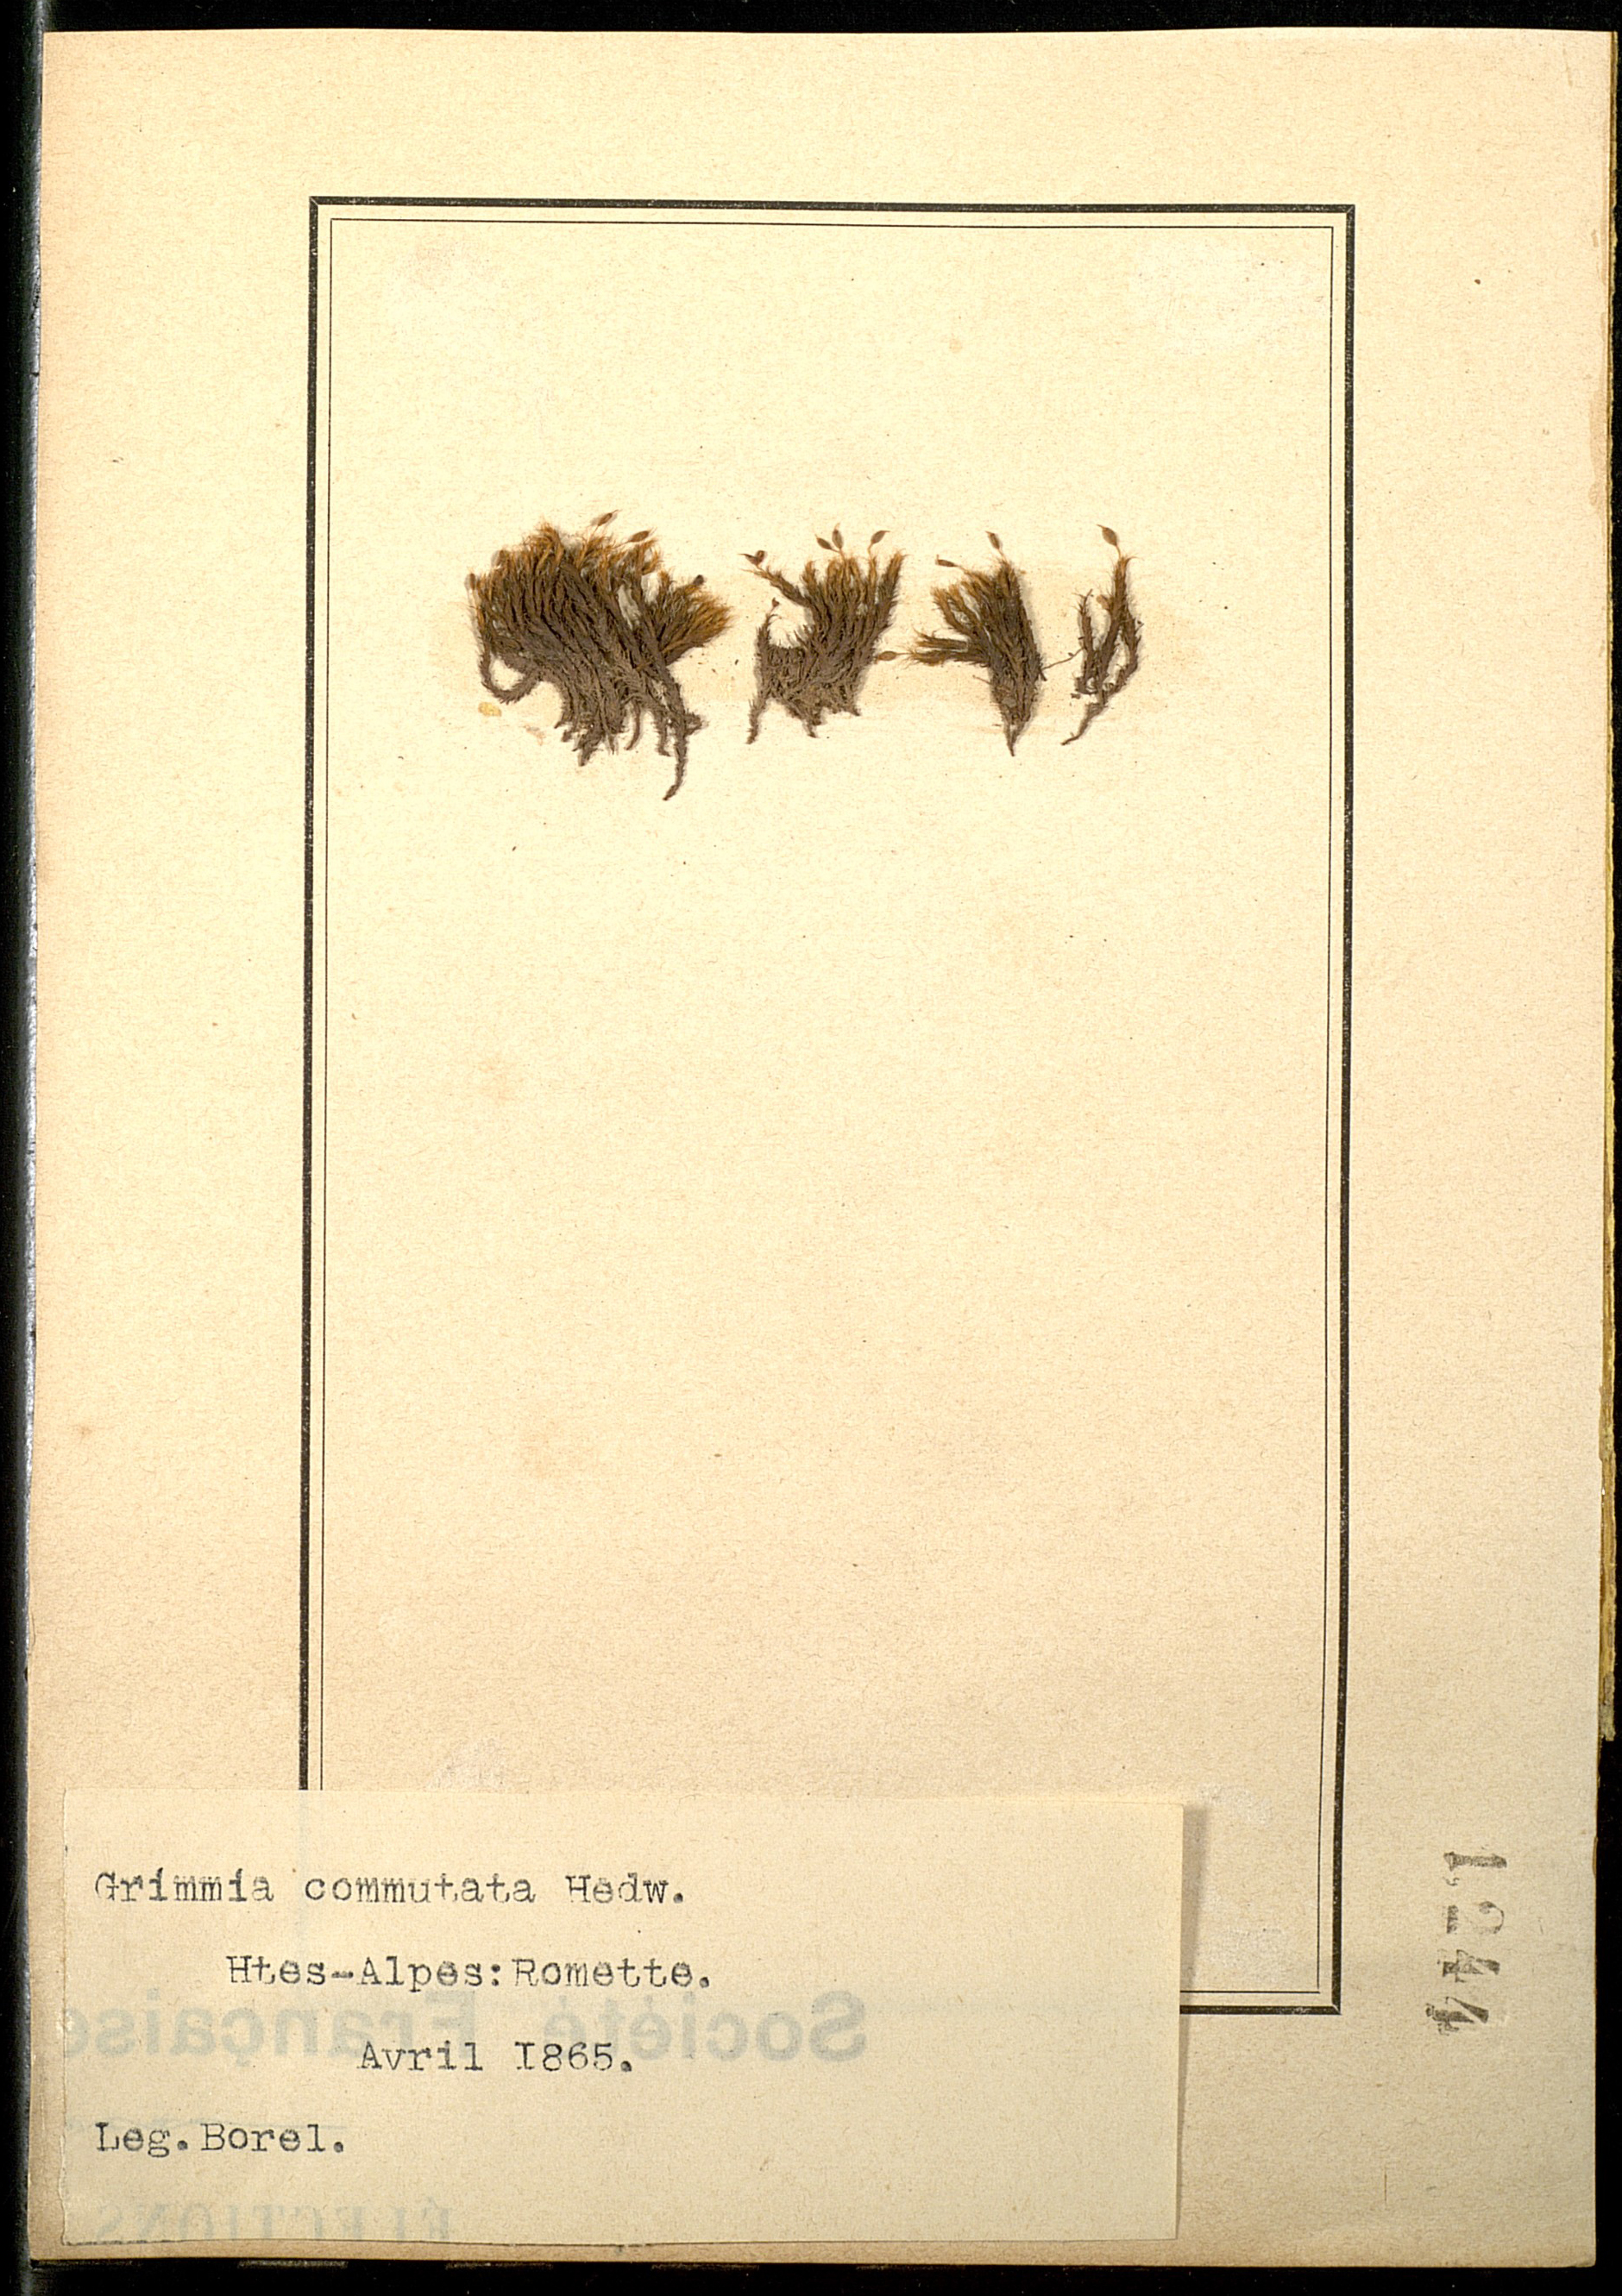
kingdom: Plantae
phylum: Bryophyta
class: Bryopsida
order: Grimmiales
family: Grimmiaceae
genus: Grimmia
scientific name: Grimmia ovalis
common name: Oval grimmia
